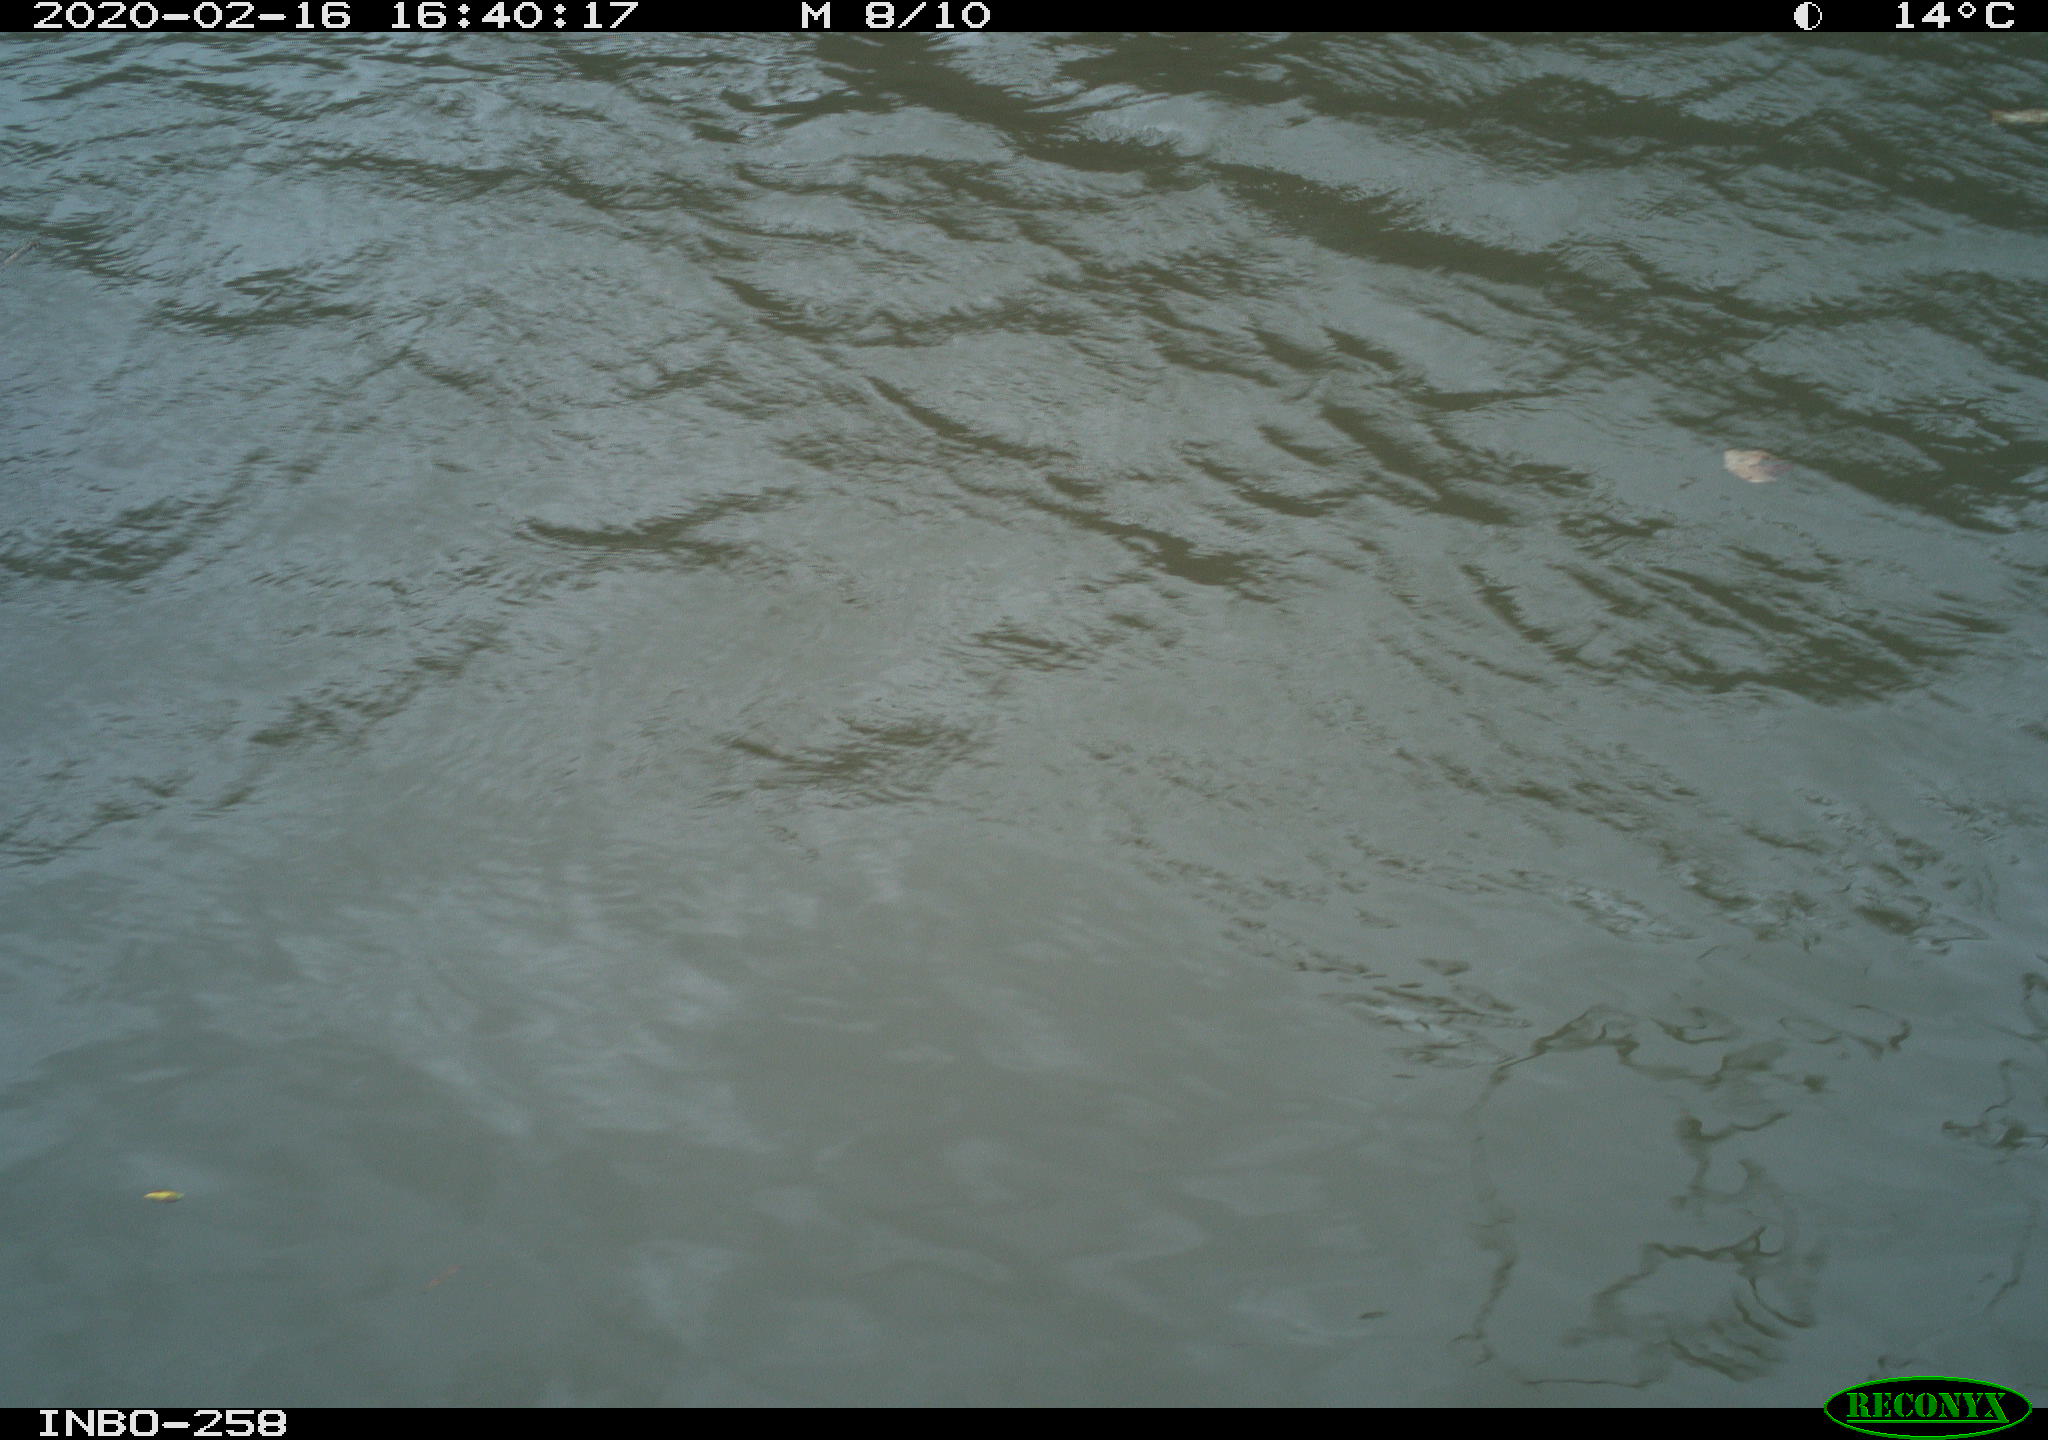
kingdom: Animalia
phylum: Chordata
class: Aves
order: Anseriformes
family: Anatidae
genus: Anas
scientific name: Anas platyrhynchos
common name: Mallard
